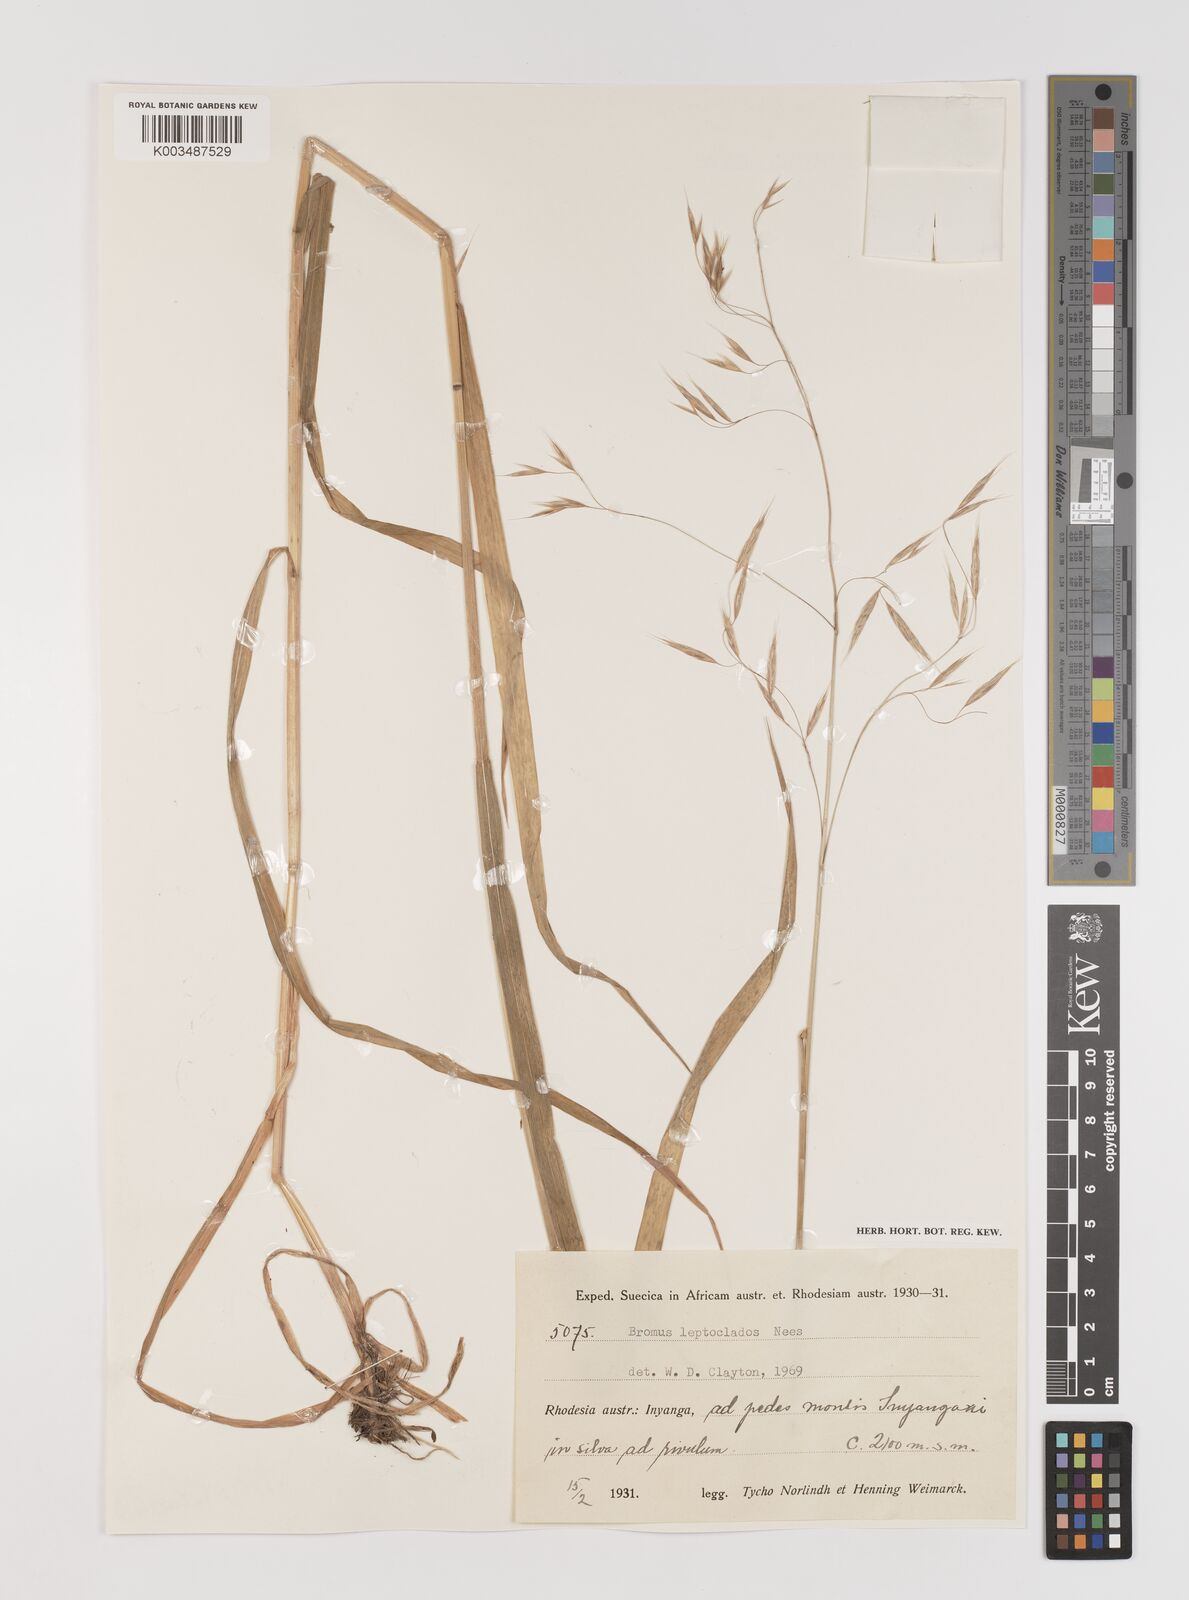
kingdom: Plantae
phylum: Tracheophyta
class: Liliopsida
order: Poales
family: Poaceae
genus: Bromus
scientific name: Bromus leptoclados
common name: Mountain bromegrass
